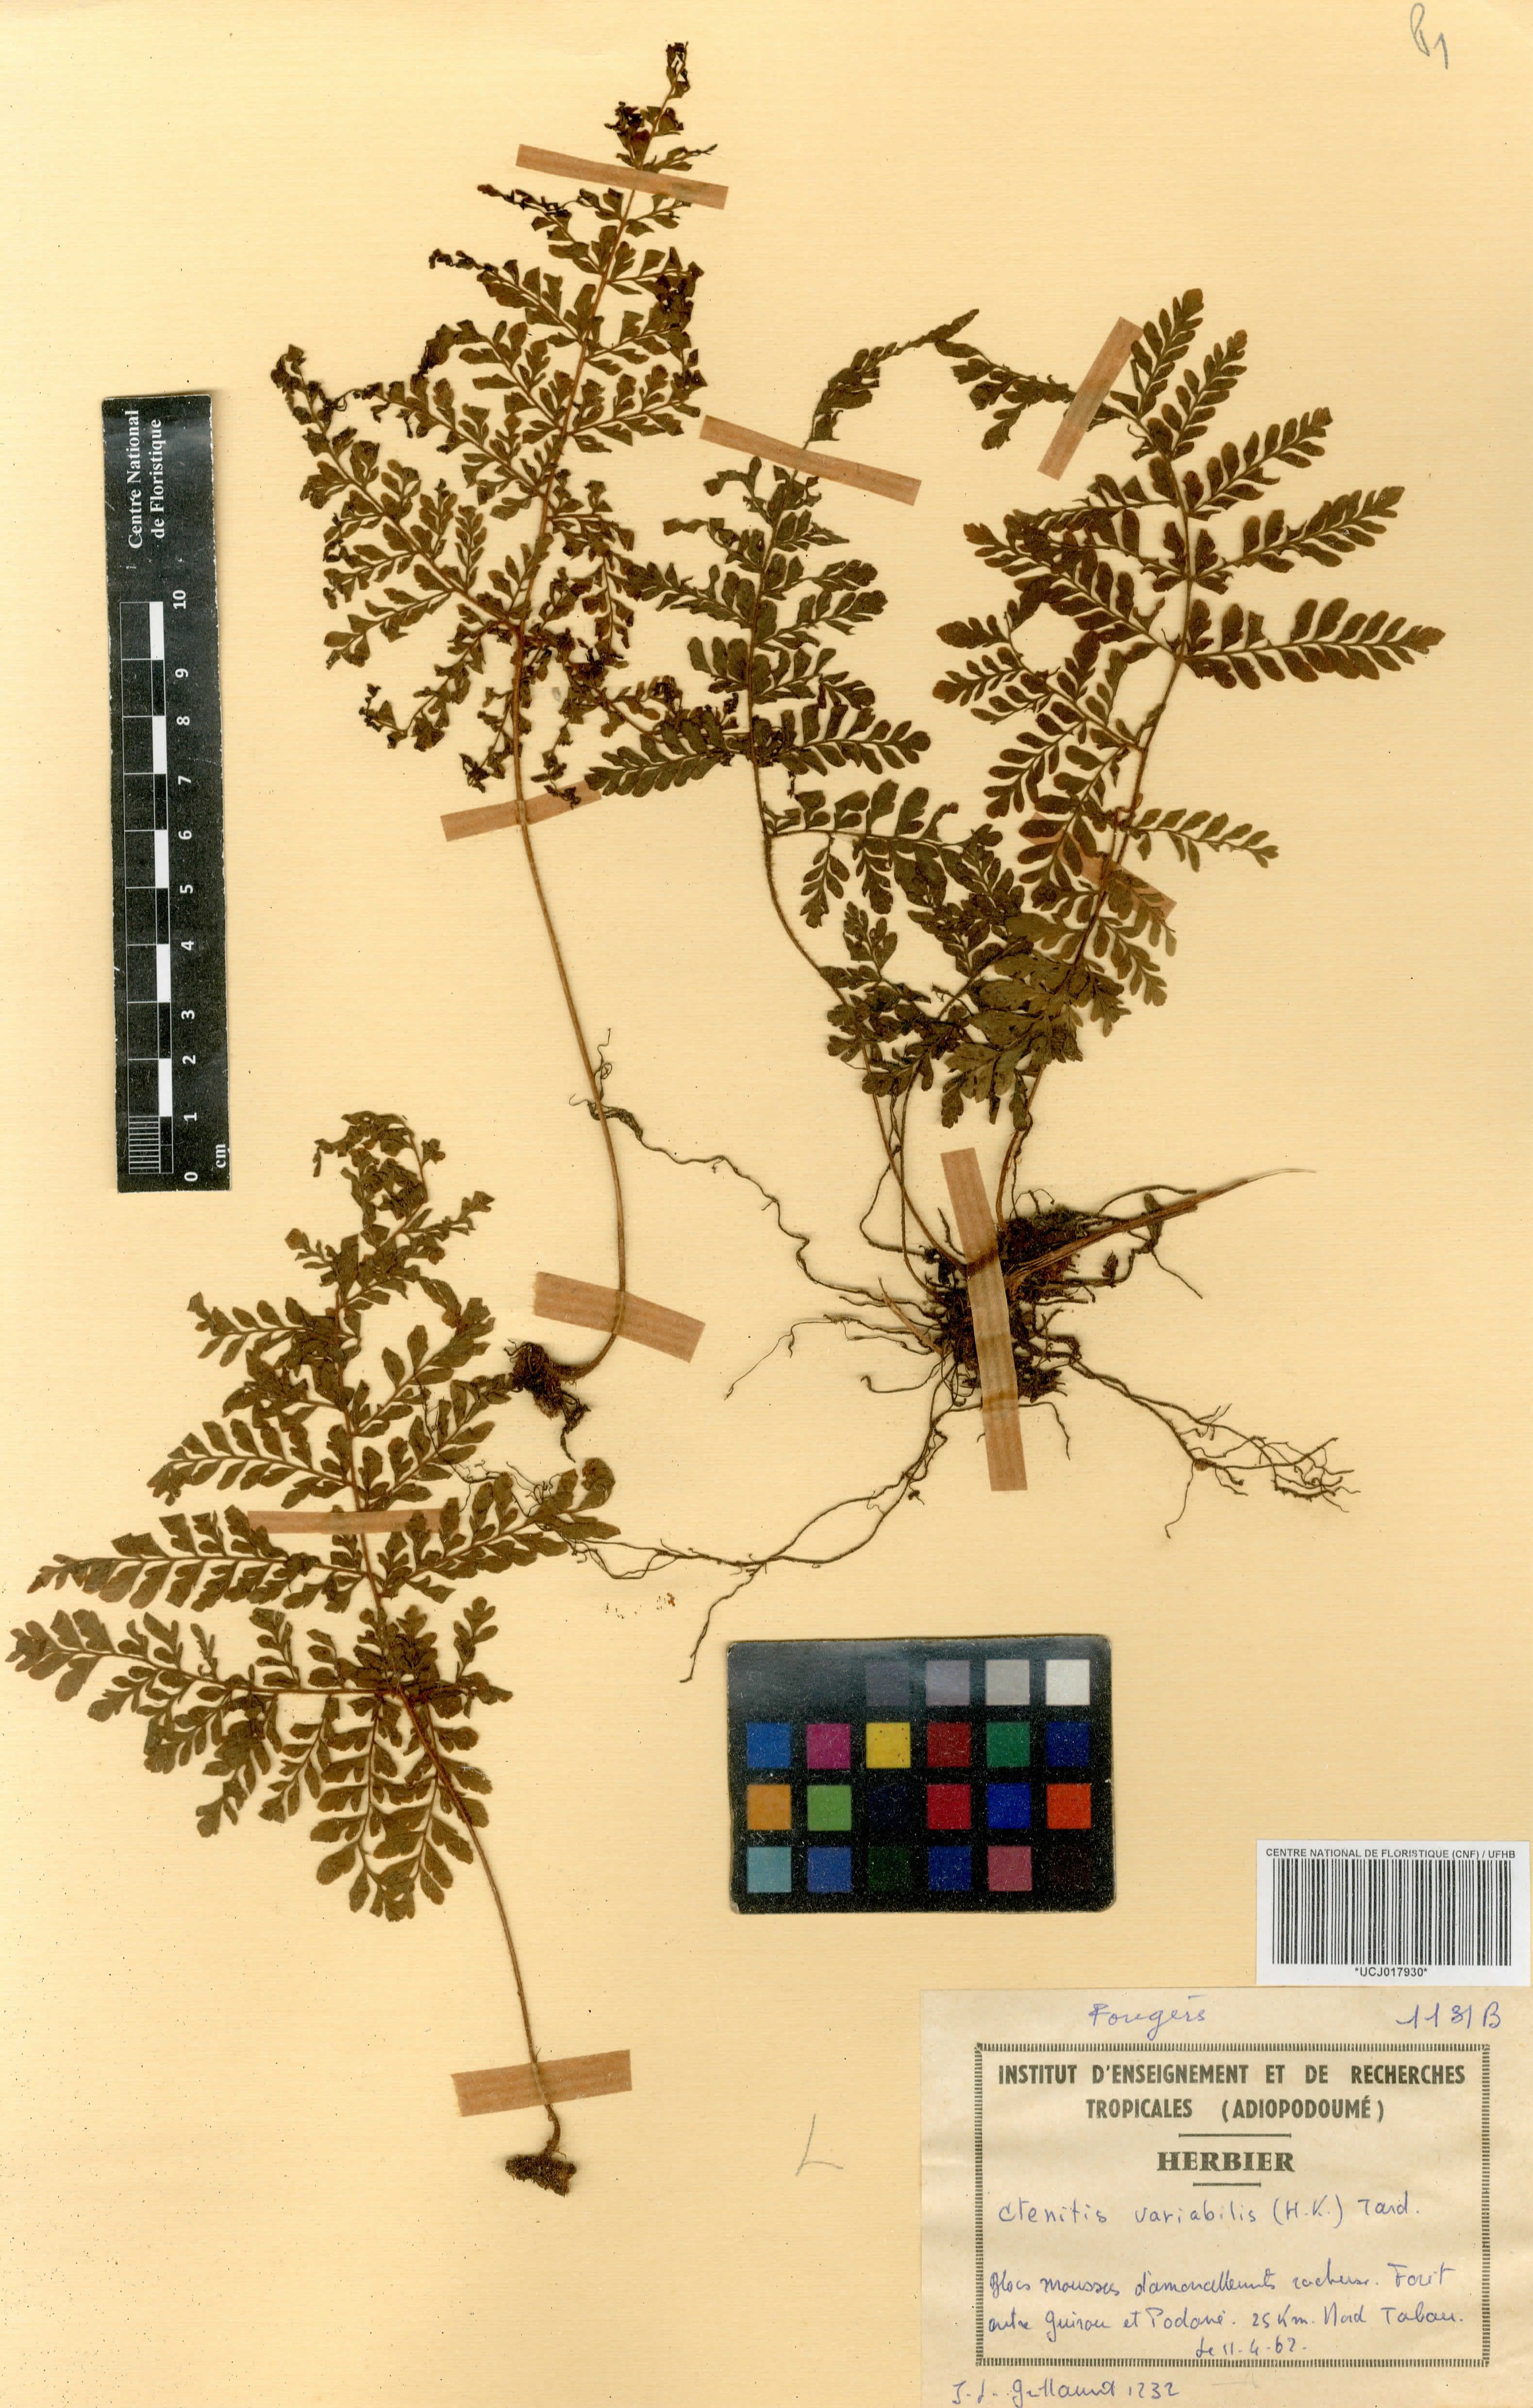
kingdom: Plantae
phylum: Tracheophyta
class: Polypodiopsida
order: Polypodiales
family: Tectariaceae
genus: Triplophyllum
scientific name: Triplophyllum pilosissimum
